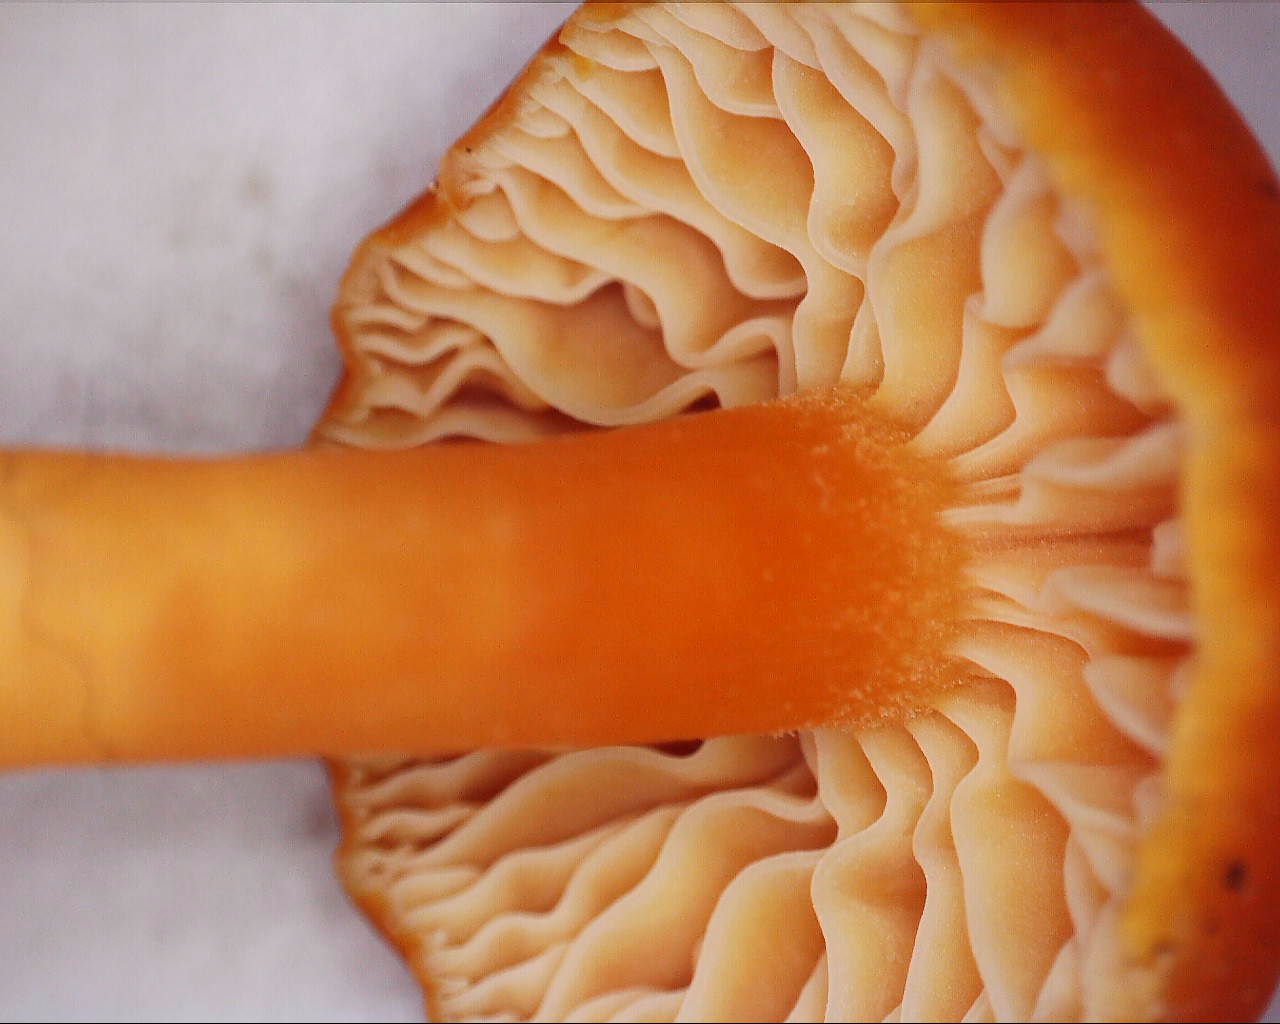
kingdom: Fungi
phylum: Basidiomycota
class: Agaricomycetes
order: Agaricales
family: Hygrophoraceae
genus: Hygrocybe
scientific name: Hygrocybe miniata
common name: mønje-vokshat
